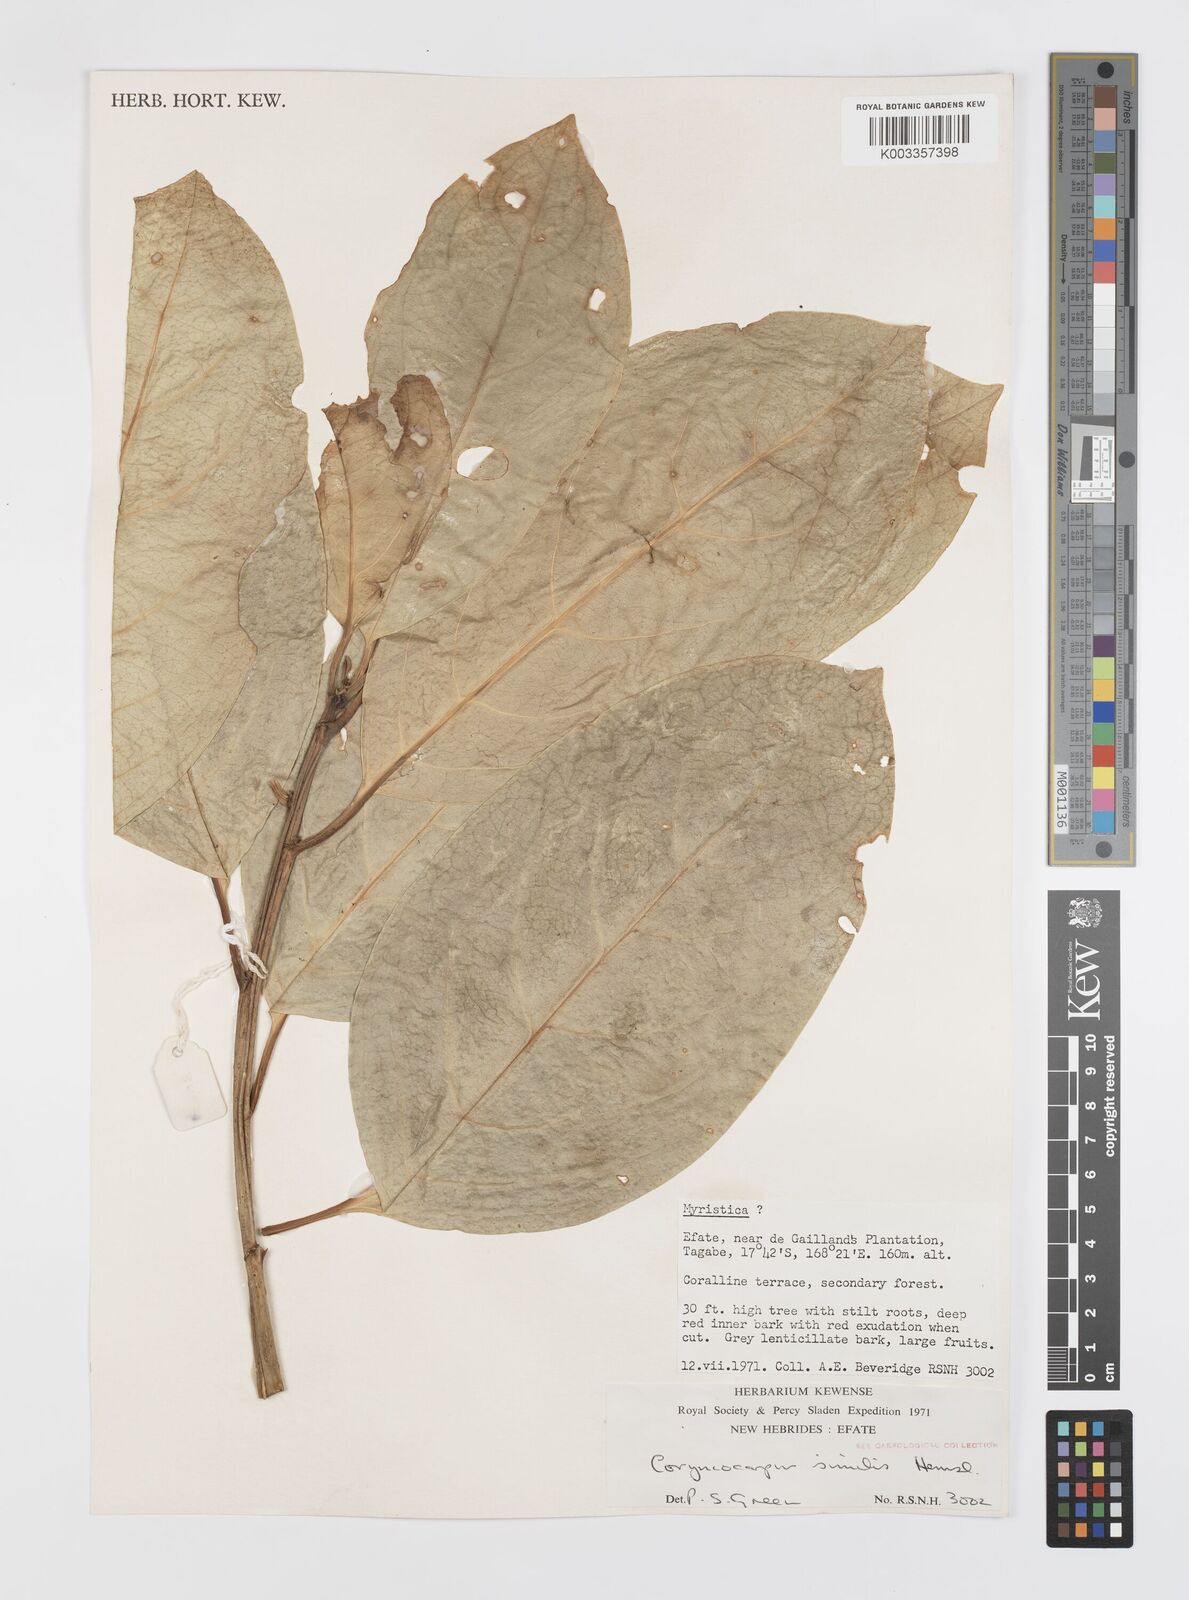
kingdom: Plantae
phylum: Tracheophyta
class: Magnoliopsida
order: Cucurbitales
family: Corynocarpaceae
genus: Corynocarpus
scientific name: Corynocarpus similis
